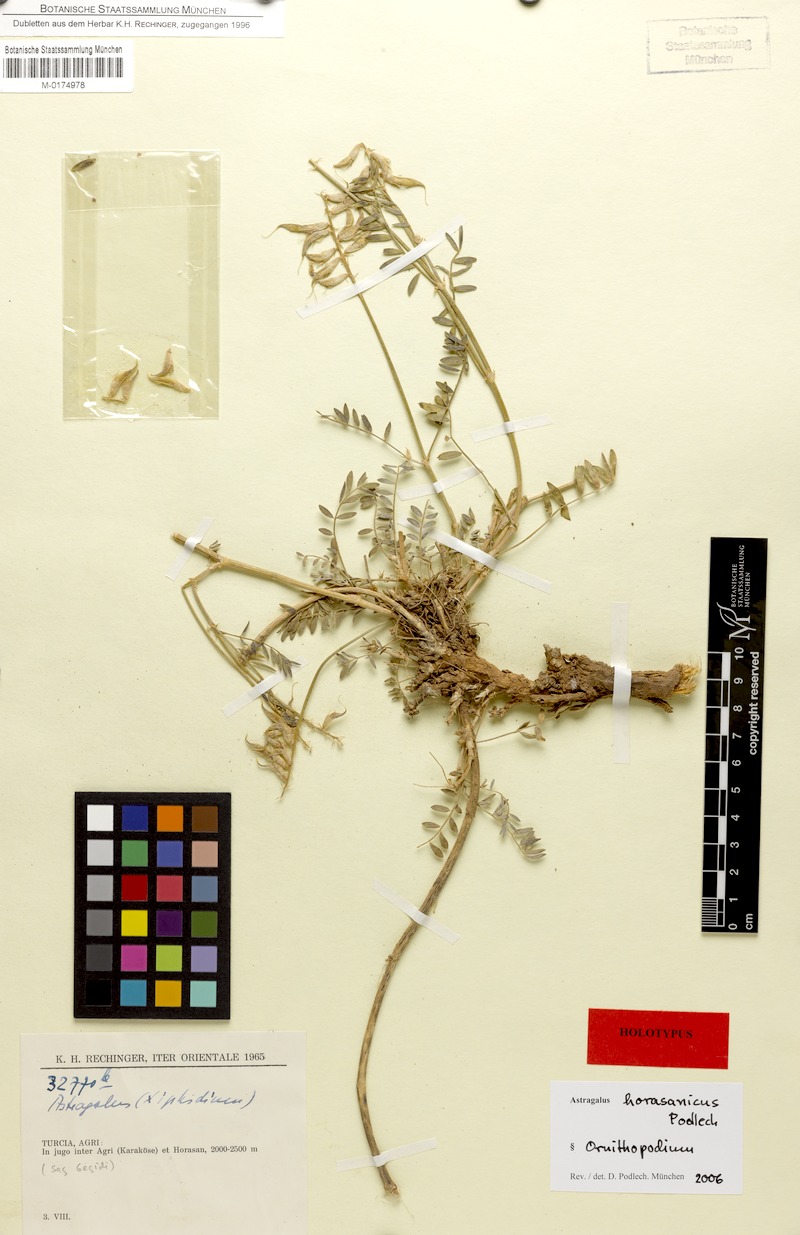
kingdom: Plantae
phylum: Tracheophyta
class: Magnoliopsida
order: Fabales
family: Fabaceae
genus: Astragalus
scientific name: Astragalus horasanicus
